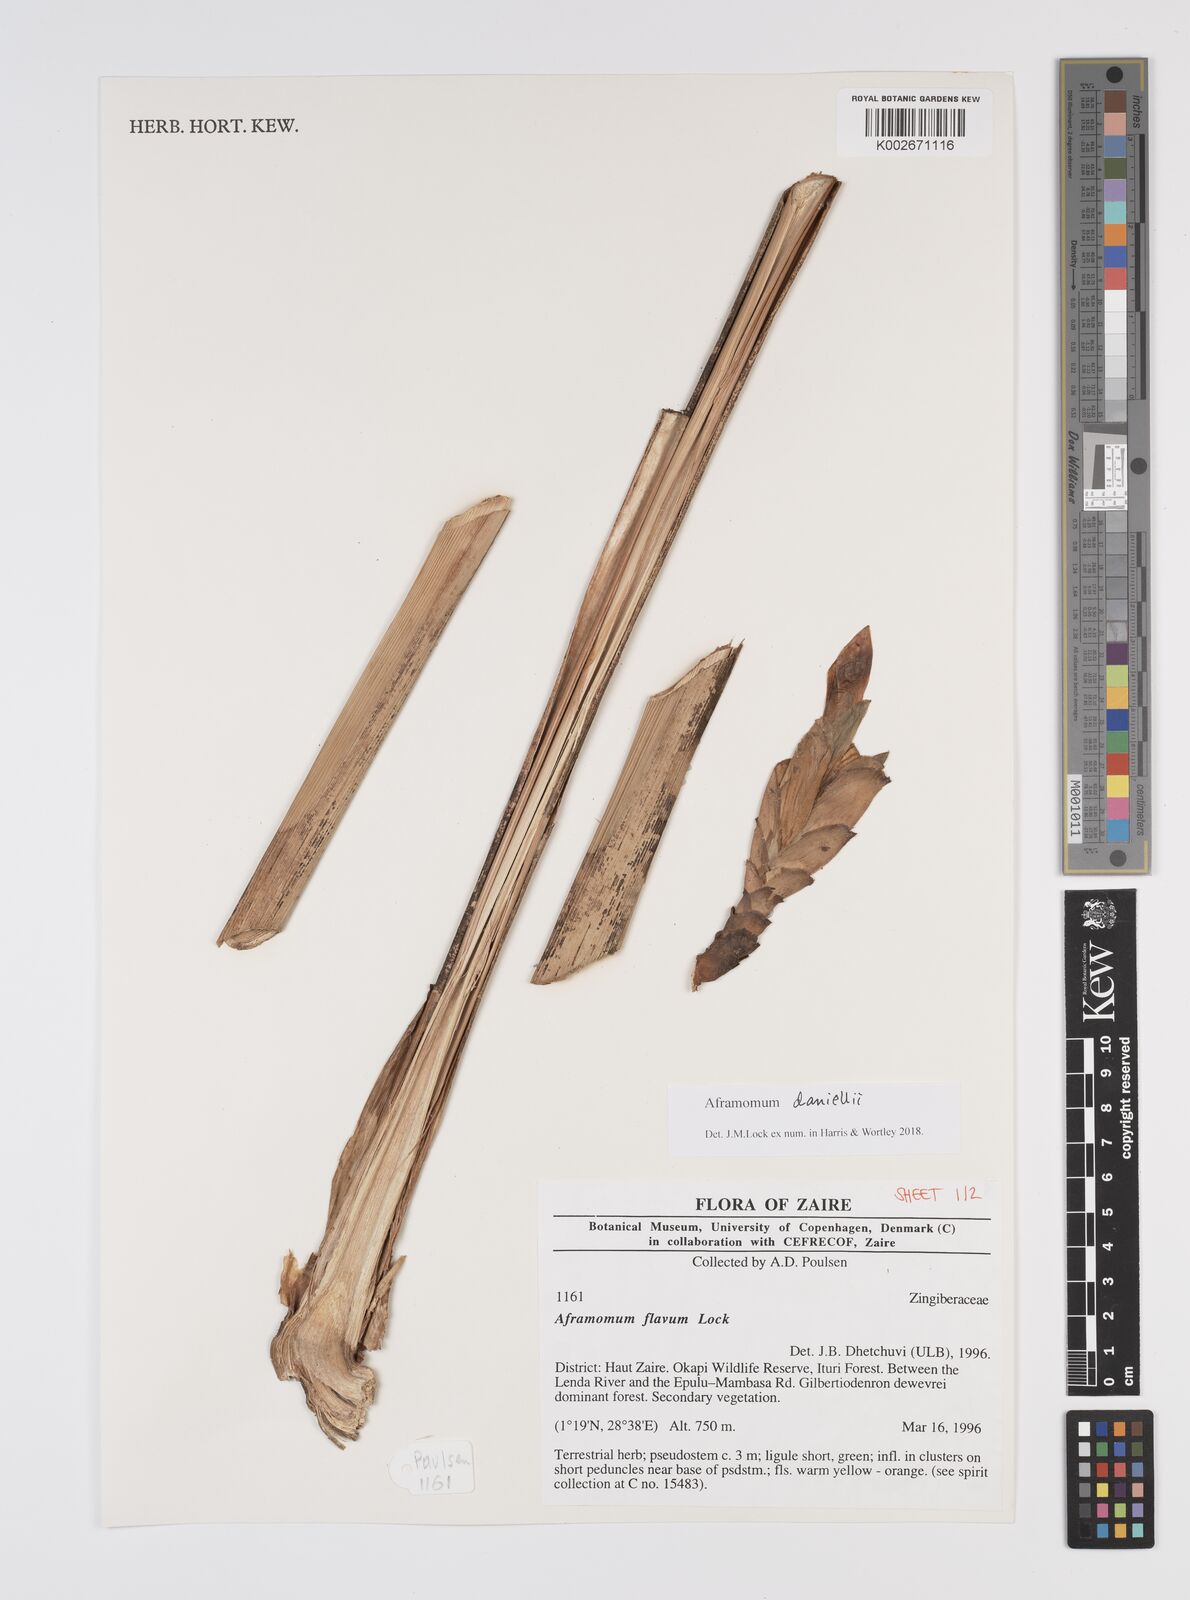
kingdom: Plantae
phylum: Tracheophyta
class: Liliopsida
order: Zingiberales
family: Zingiberaceae
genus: Aframomum
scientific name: Aframomum daniellii
